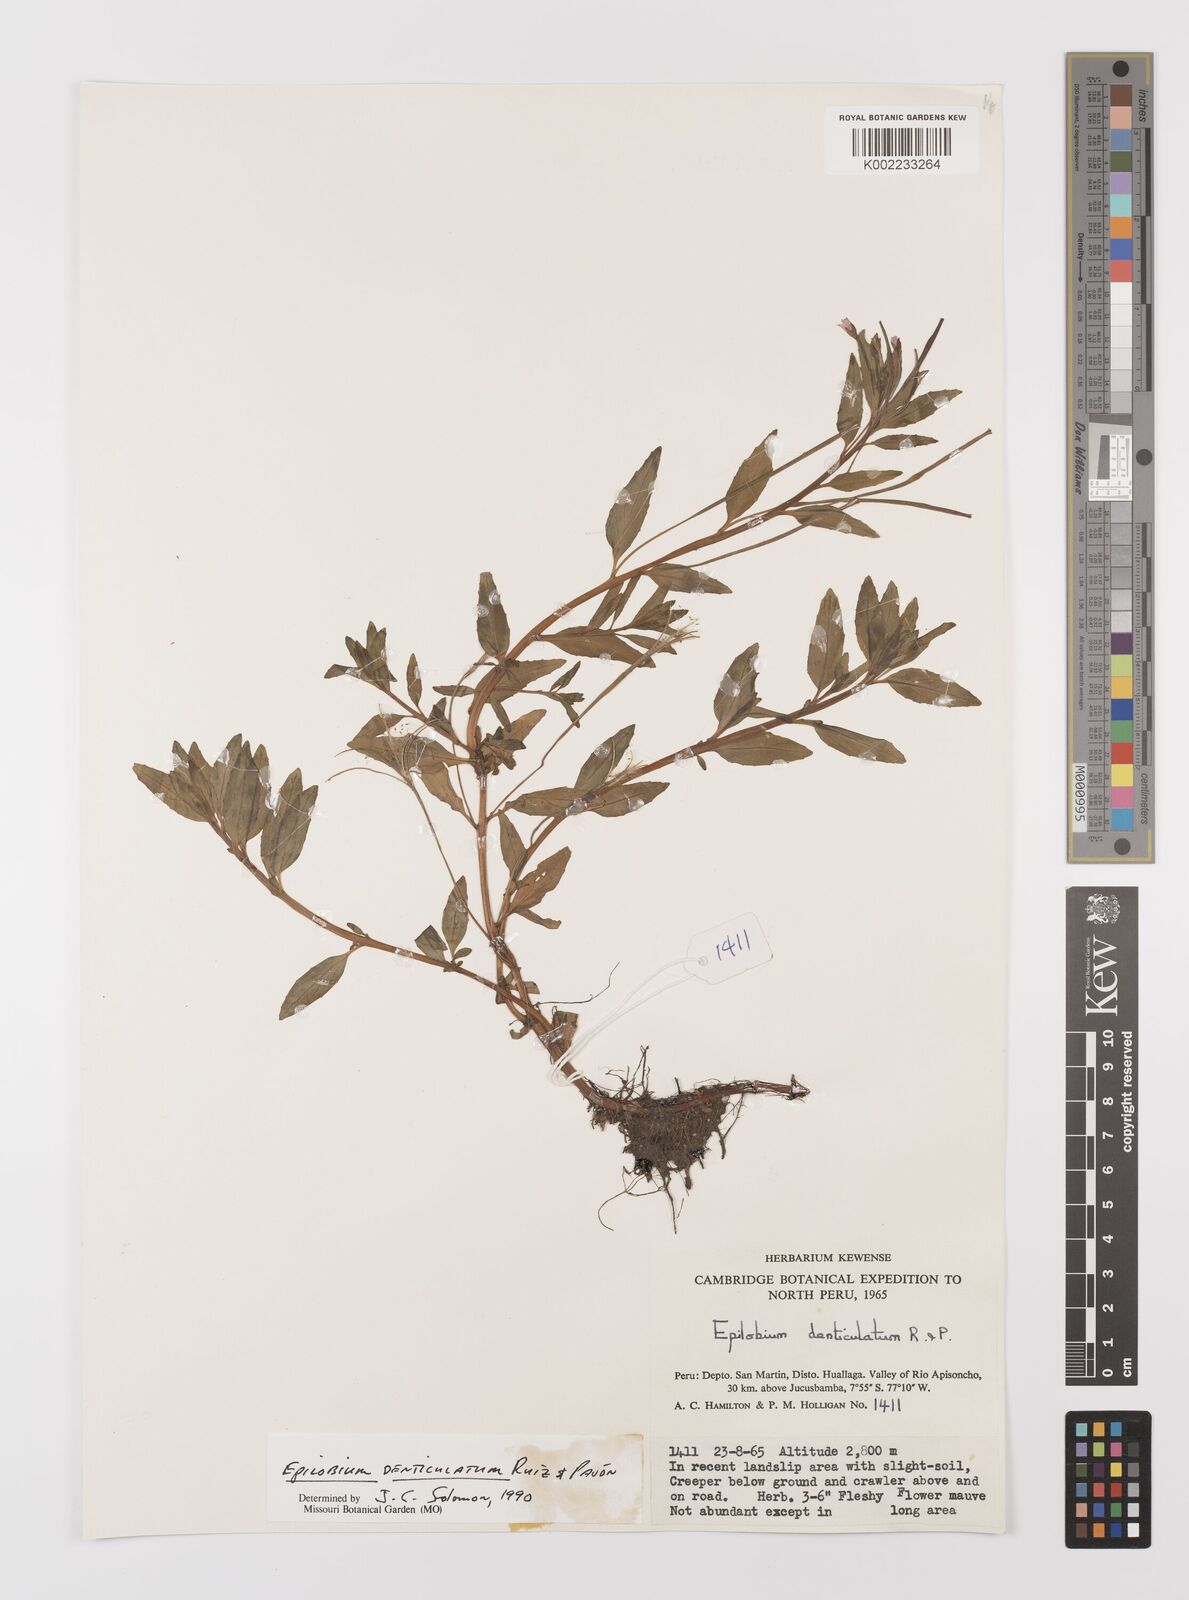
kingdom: Plantae
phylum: Tracheophyta
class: Magnoliopsida
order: Myrtales
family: Onagraceae
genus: Epilobium
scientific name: Epilobium denticulatum
